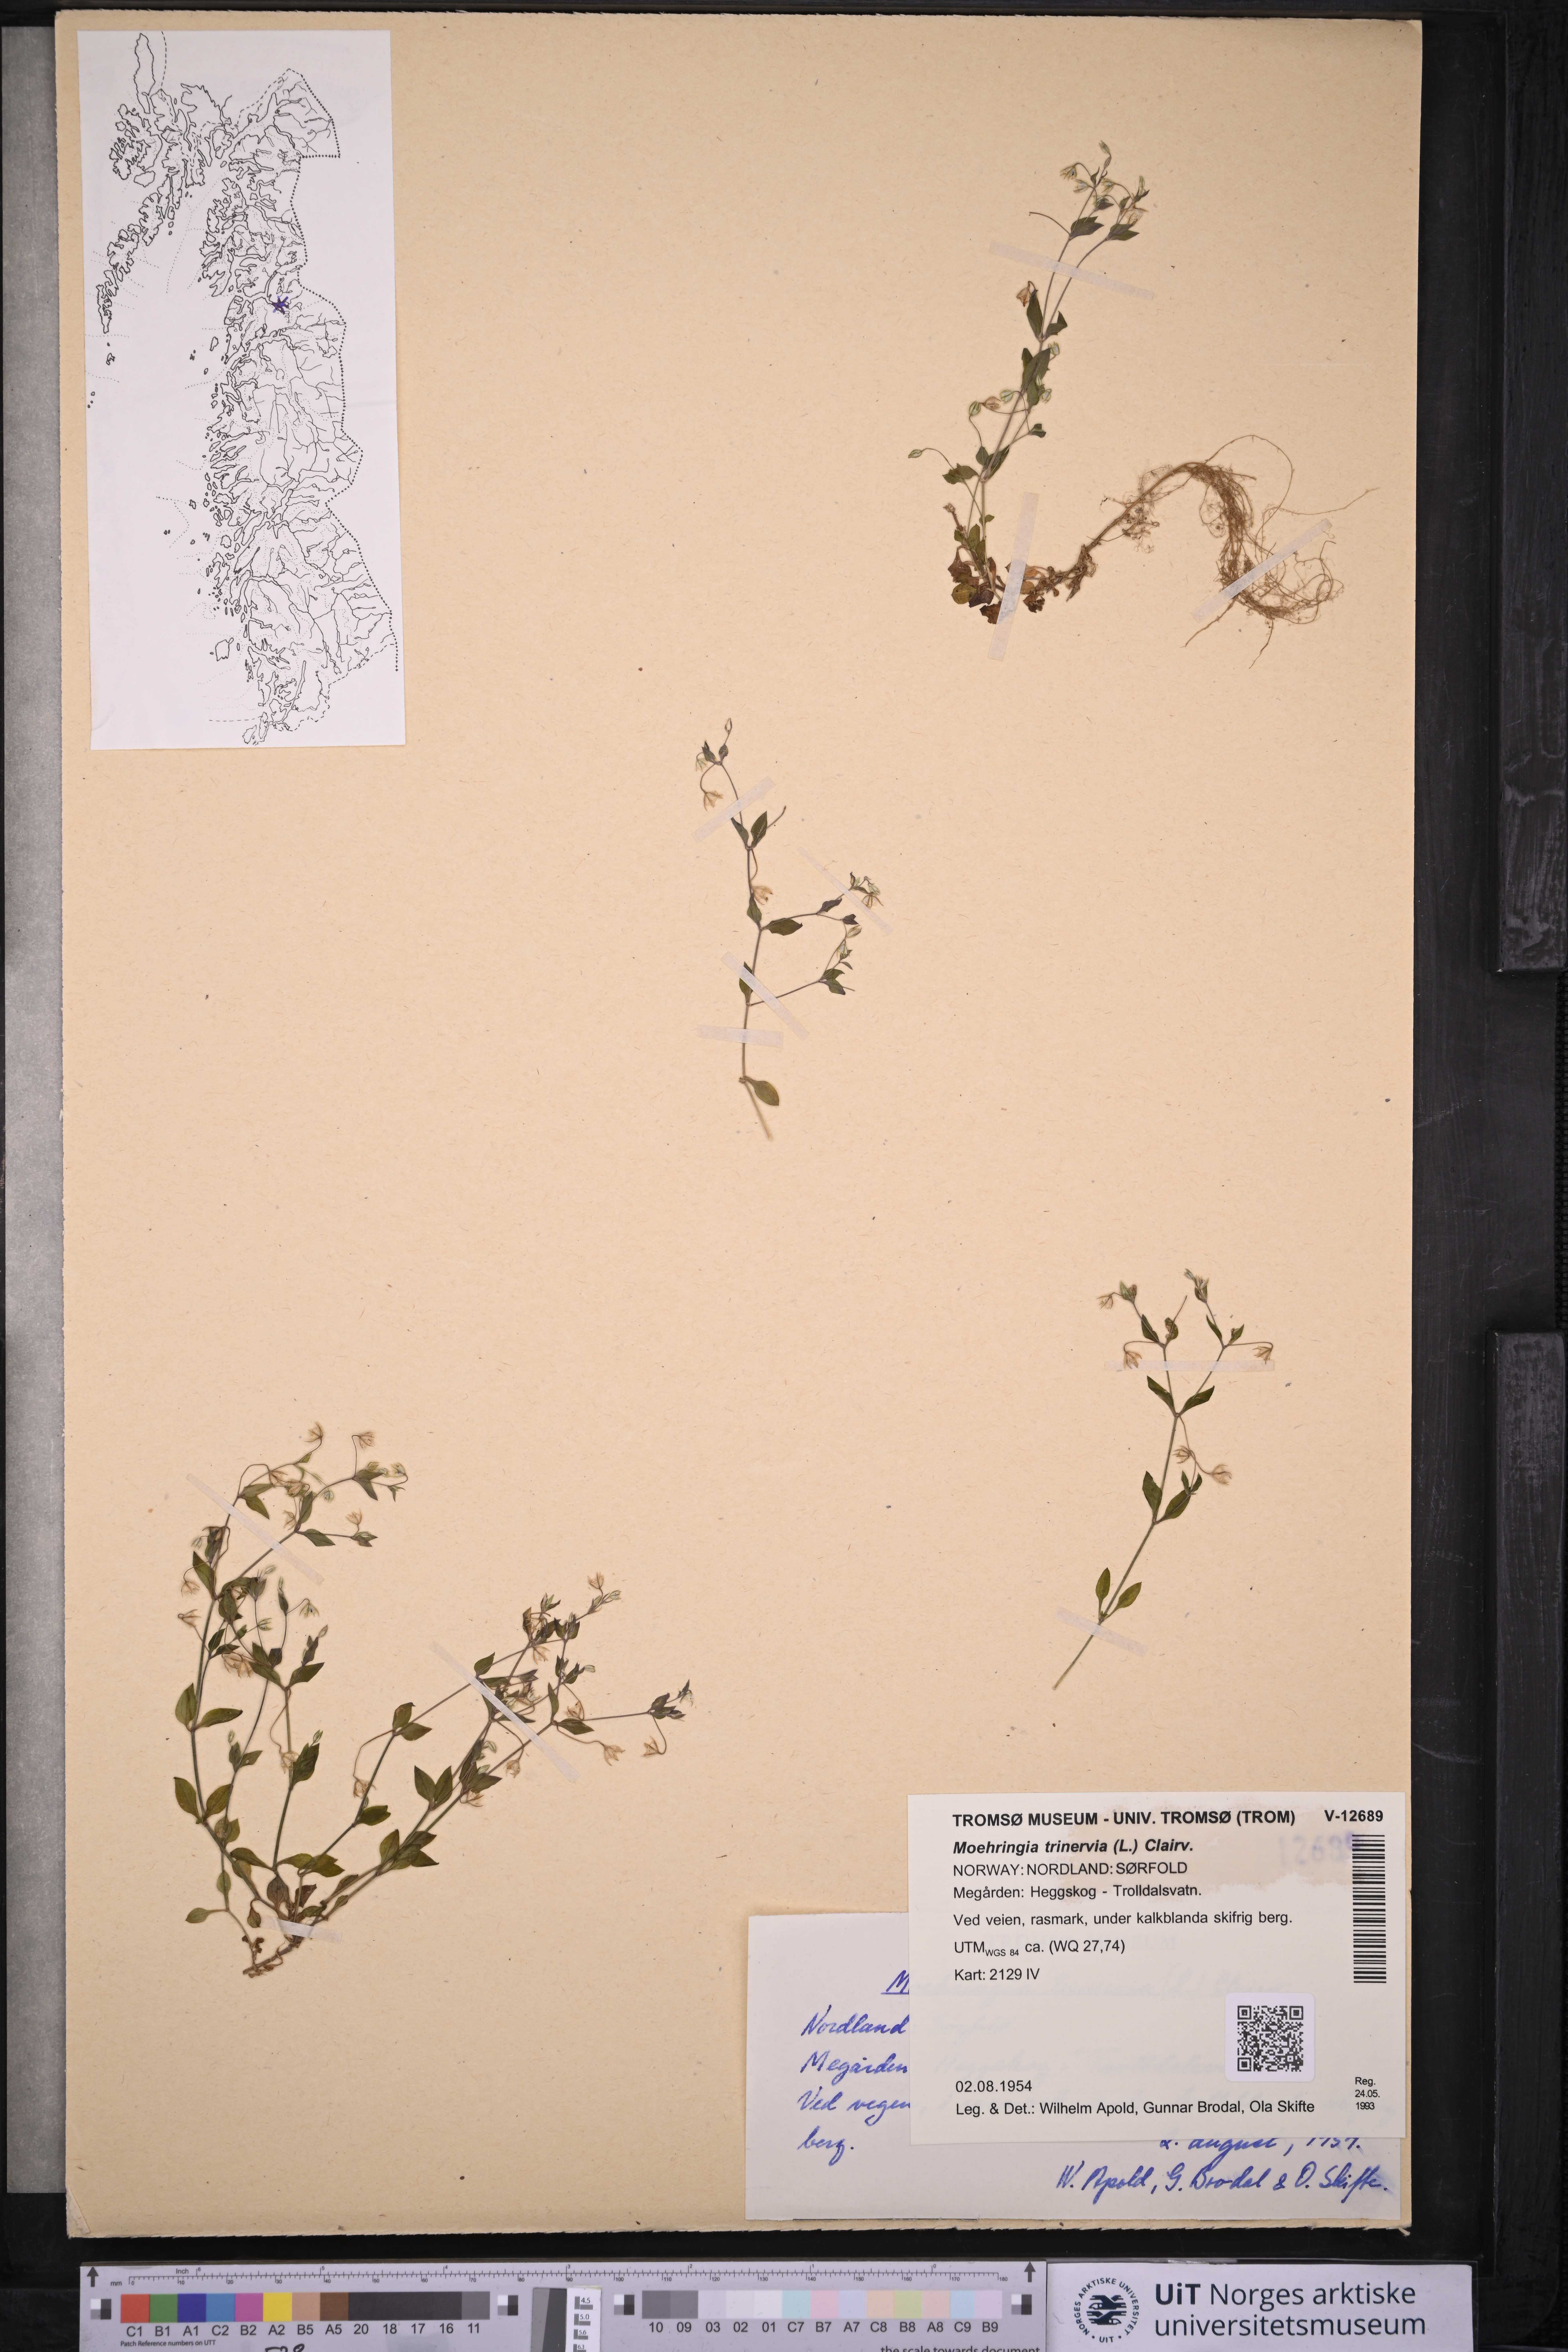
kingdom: Plantae
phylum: Tracheophyta
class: Magnoliopsida
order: Caryophyllales
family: Caryophyllaceae
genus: Moehringia
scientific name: Moehringia trinervia
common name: Three-nerved sandwort
